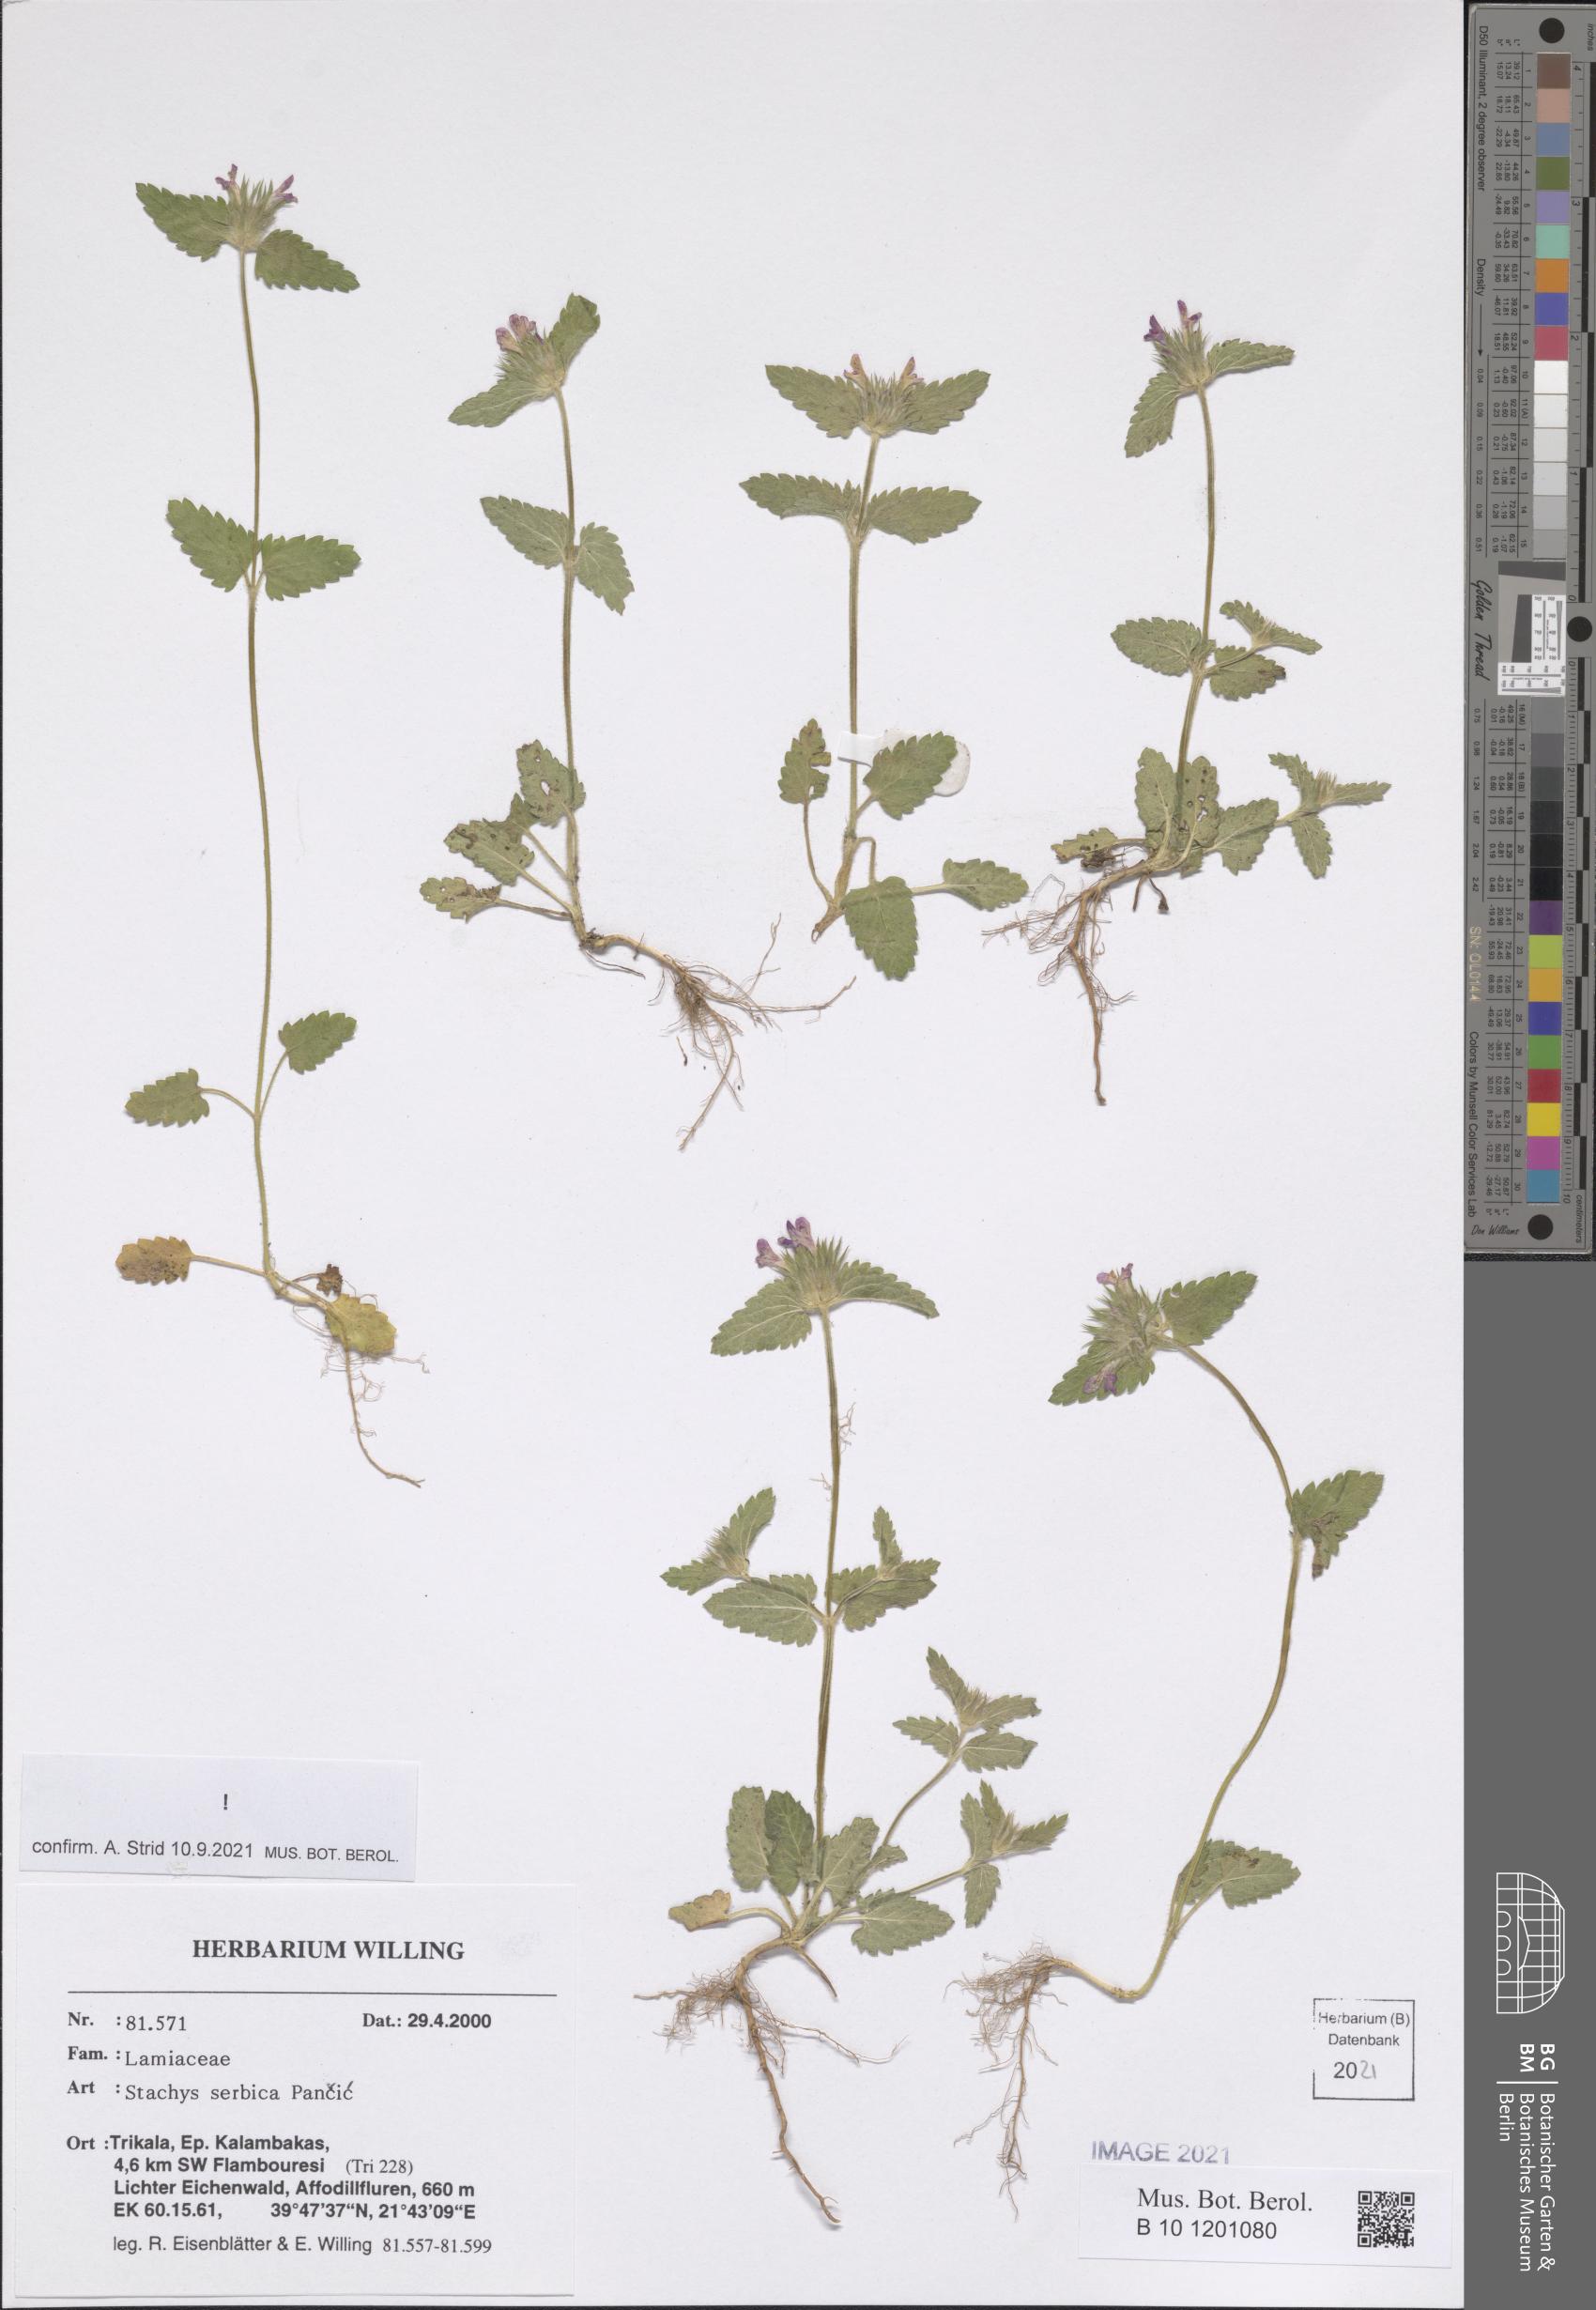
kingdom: Plantae
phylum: Tracheophyta
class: Magnoliopsida
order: Lamiales
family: Lamiaceae
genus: Stachys
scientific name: Stachys serbica
